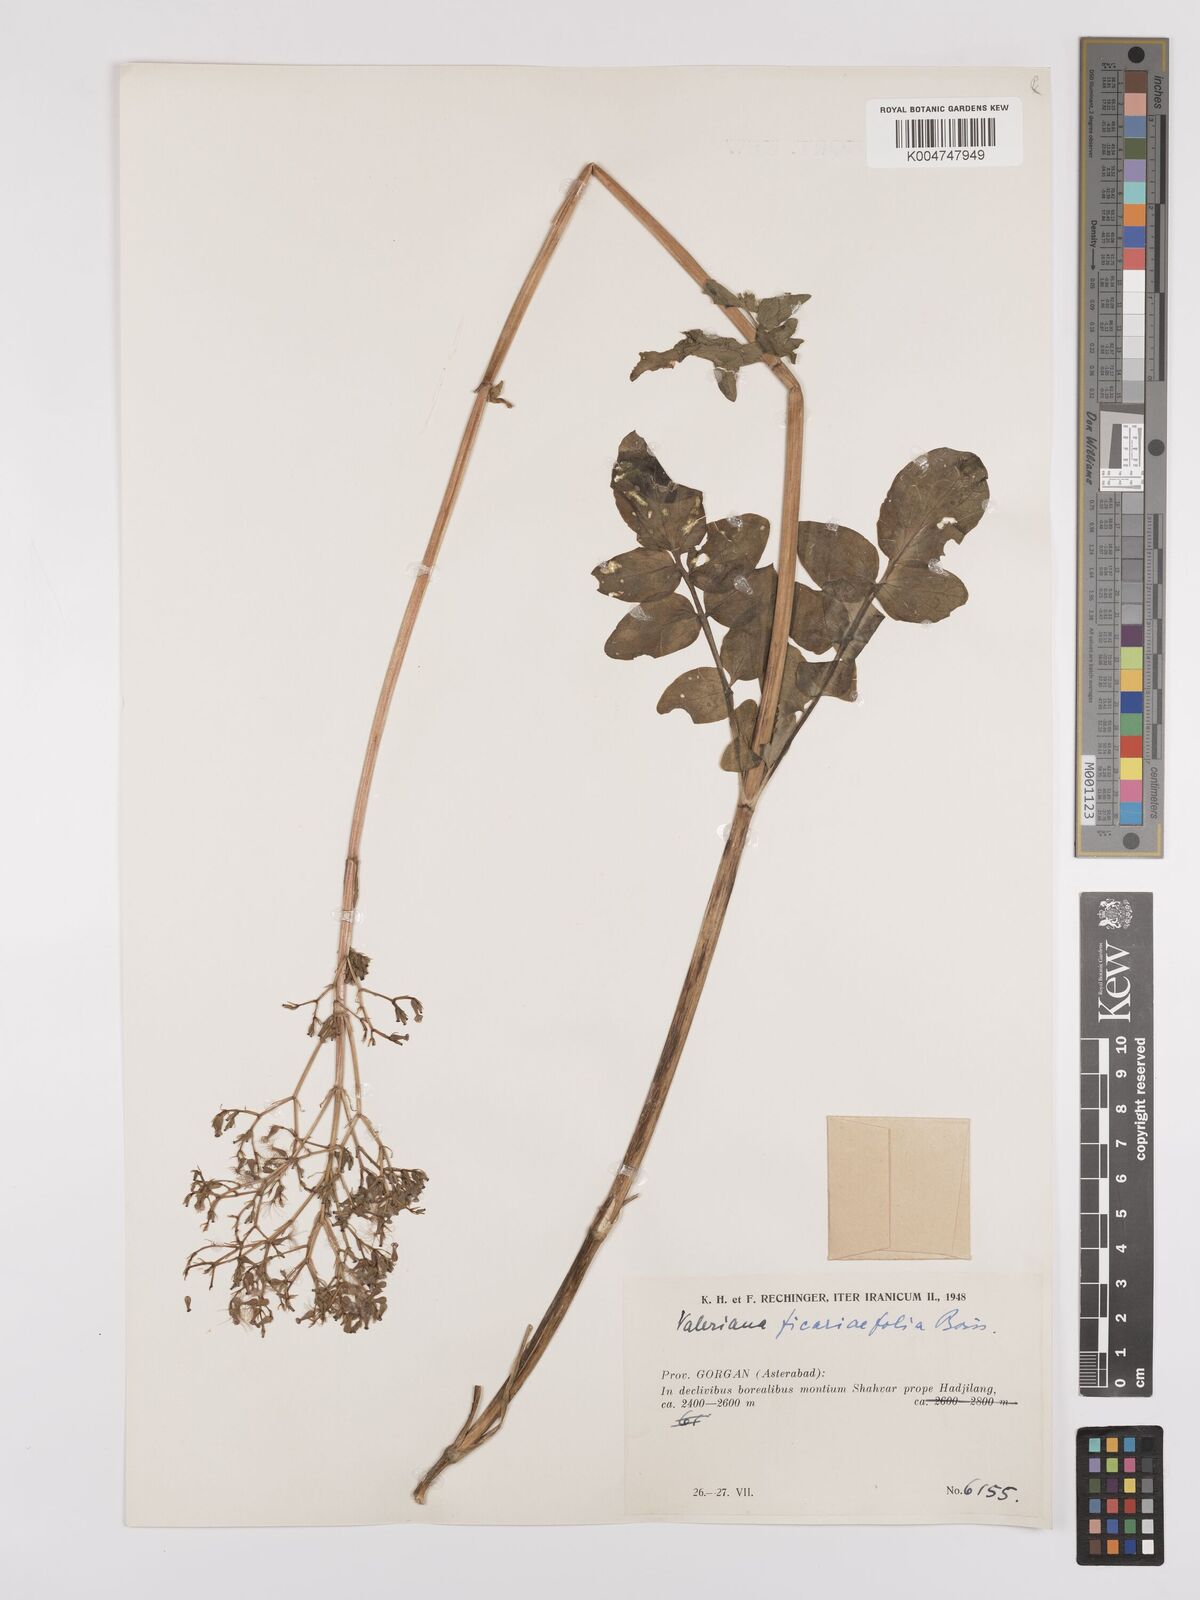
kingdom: Plantae
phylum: Tracheophyta
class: Magnoliopsida
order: Dipsacales
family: Caprifoliaceae
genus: Valeriana
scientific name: Valeriana ficariifolia
